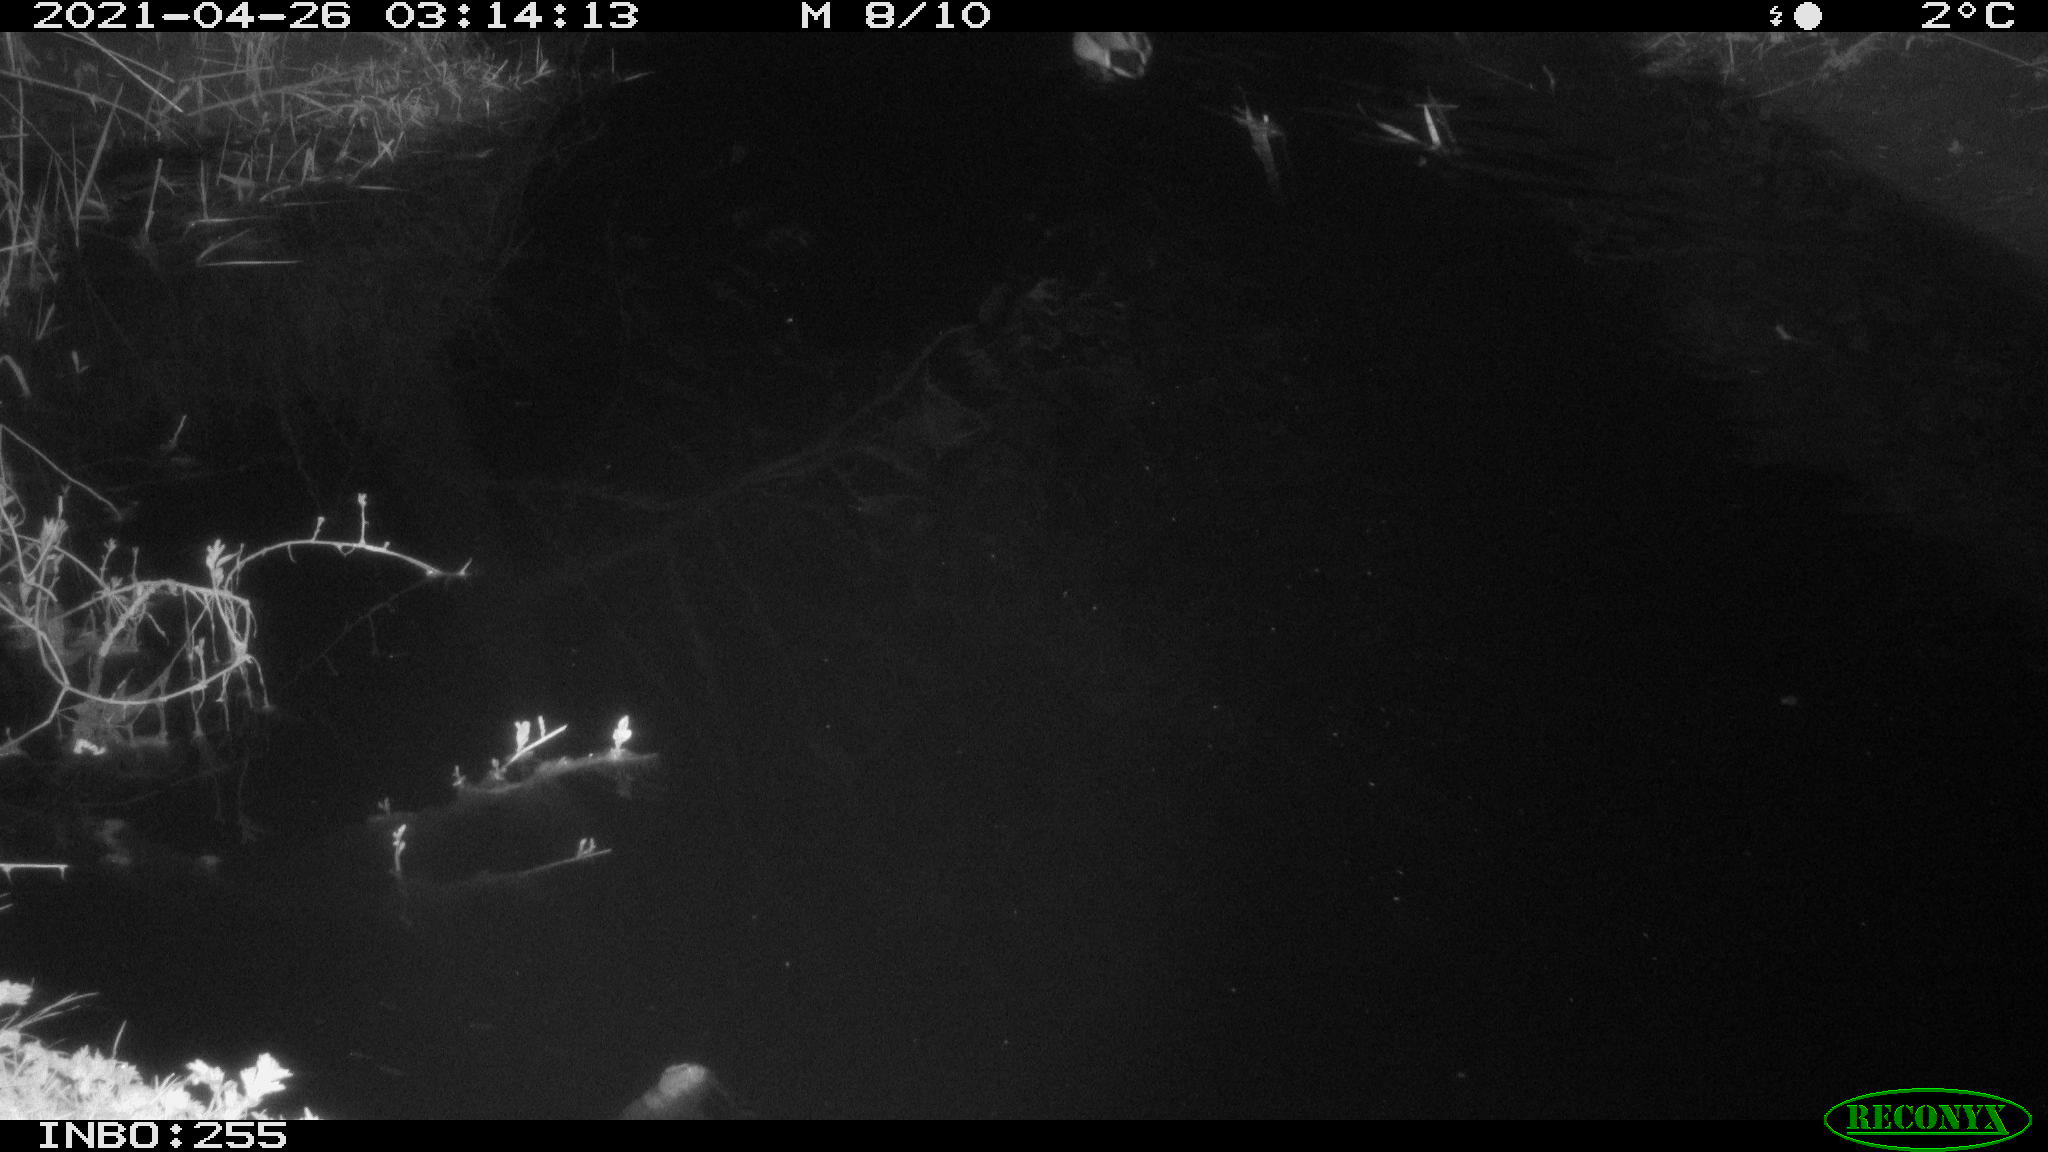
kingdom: Animalia
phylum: Chordata
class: Aves
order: Anseriformes
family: Anatidae
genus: Anas
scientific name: Anas platyrhynchos
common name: Mallard
